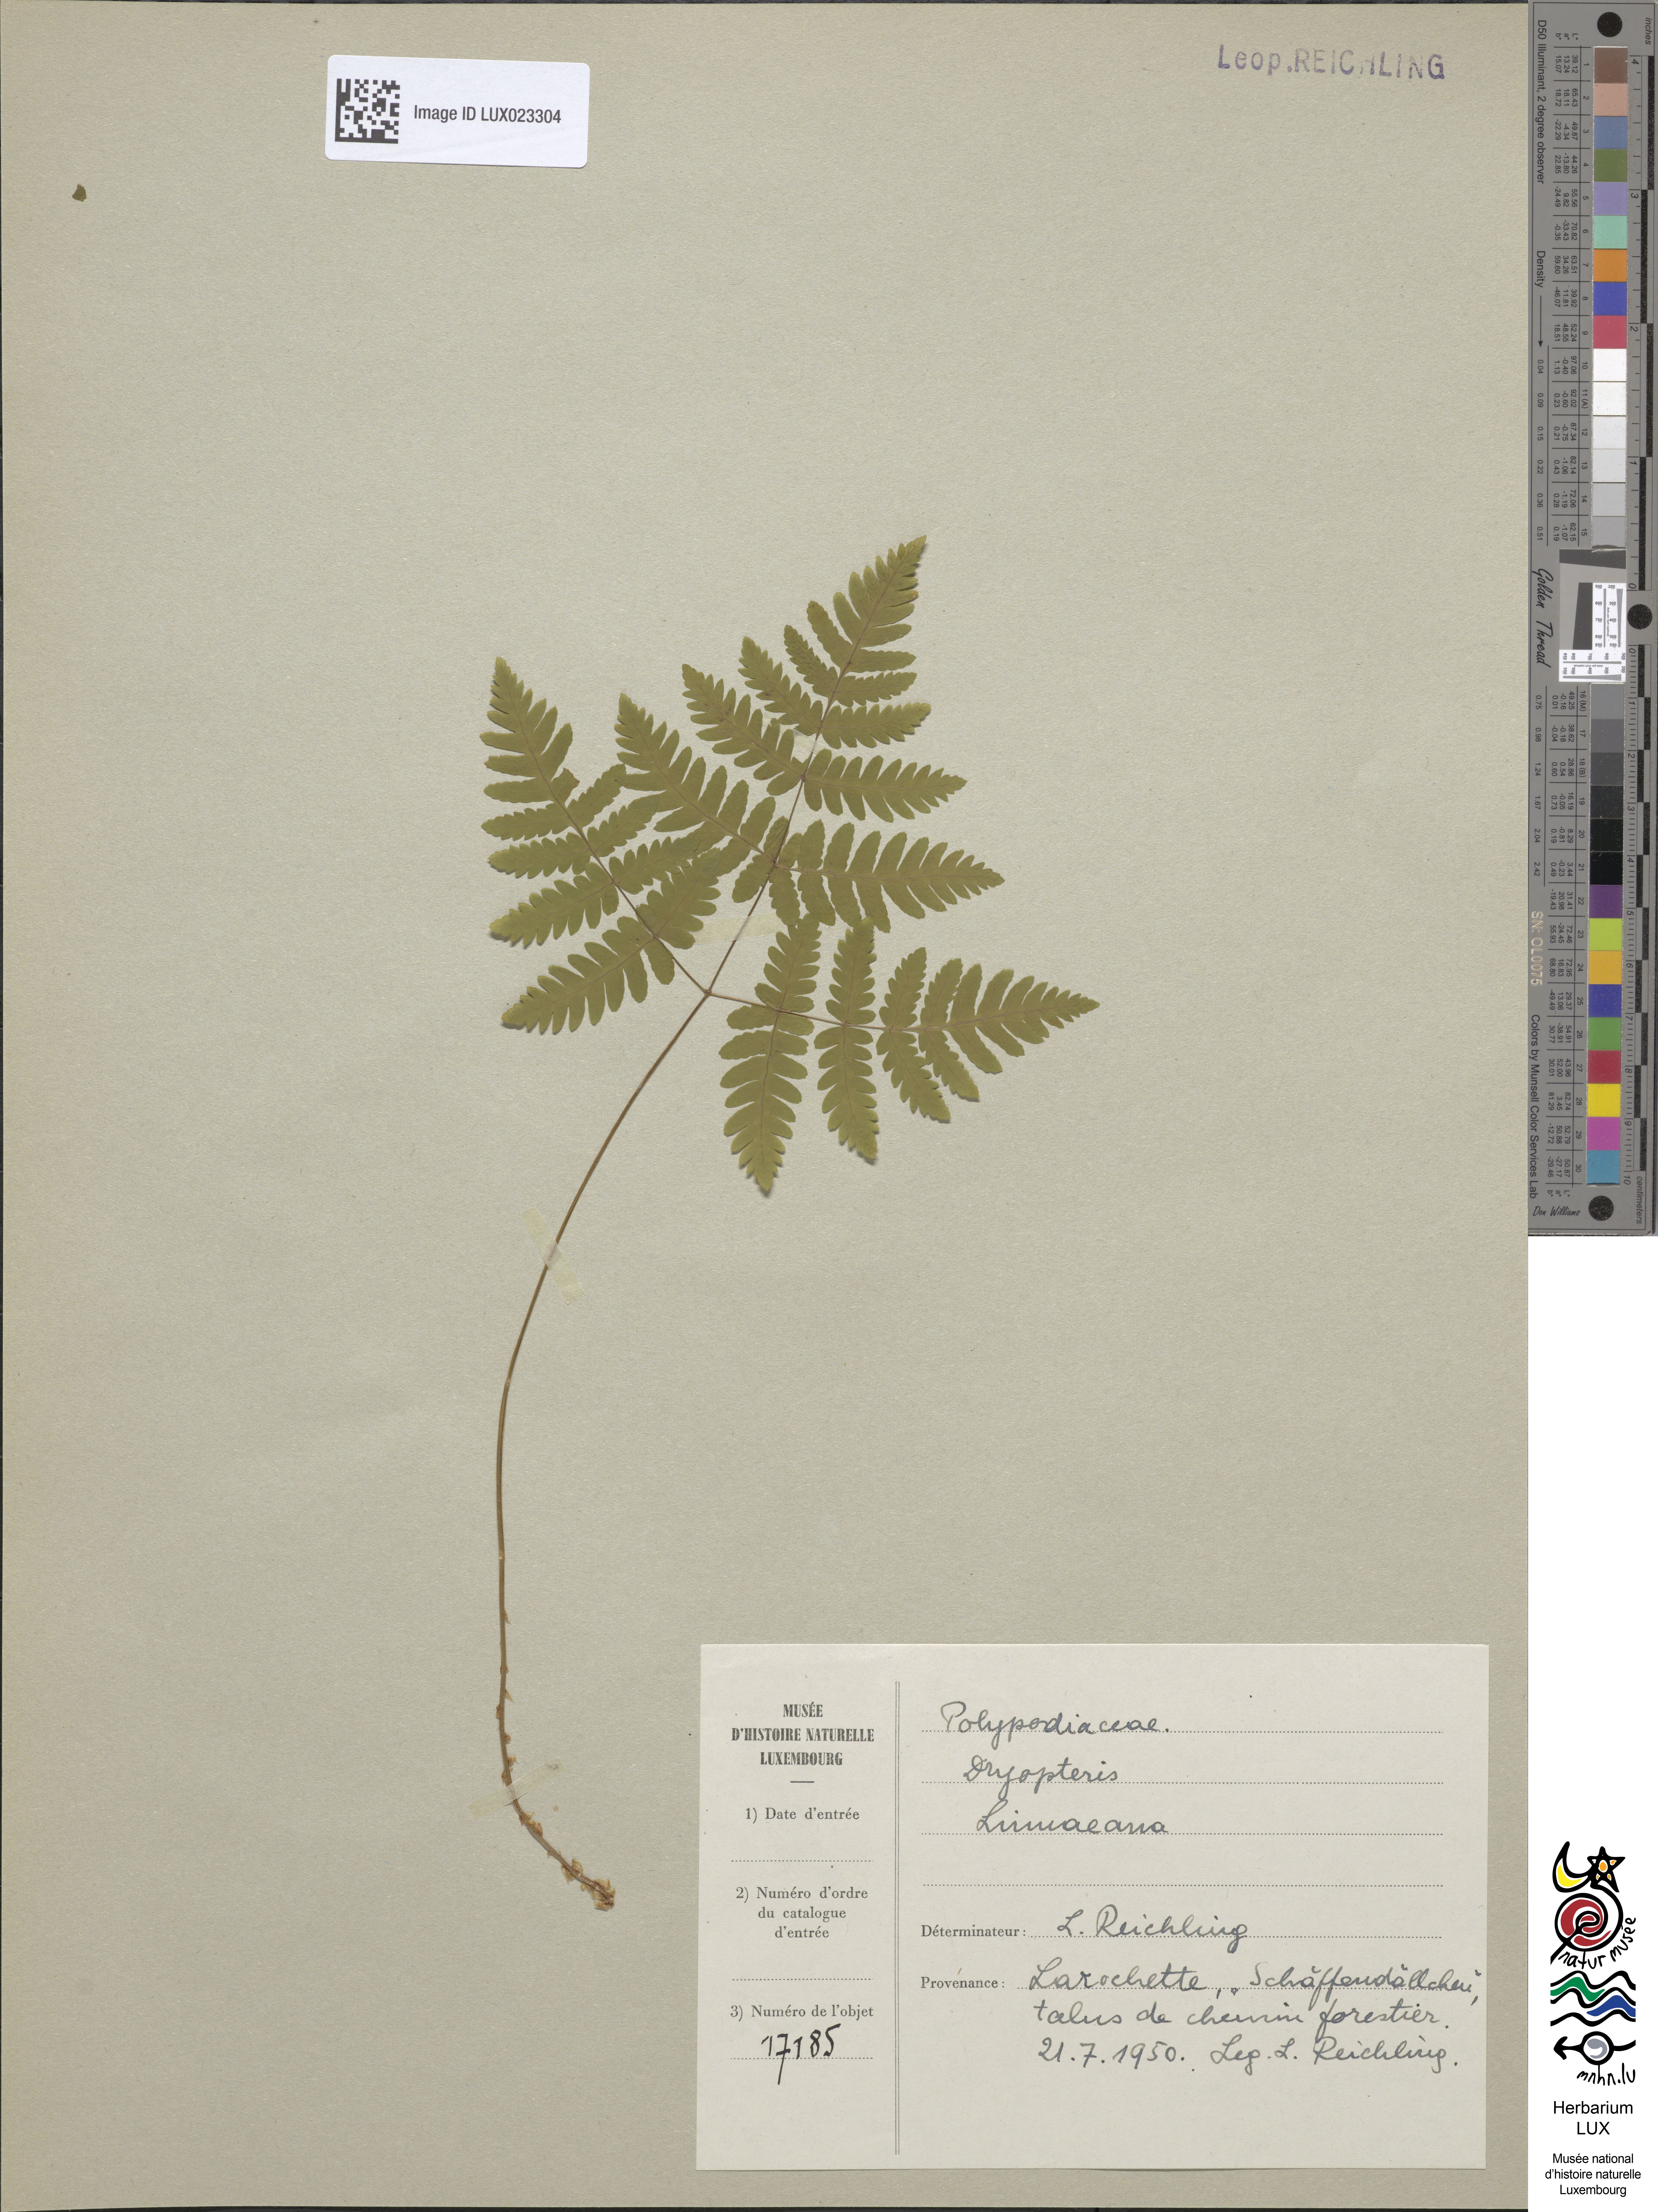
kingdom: Plantae
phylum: Tracheophyta
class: Polypodiopsida
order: Polypodiales
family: Cystopteridaceae
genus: Gymnocarpium
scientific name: Gymnocarpium dryopteris
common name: Oak fern
